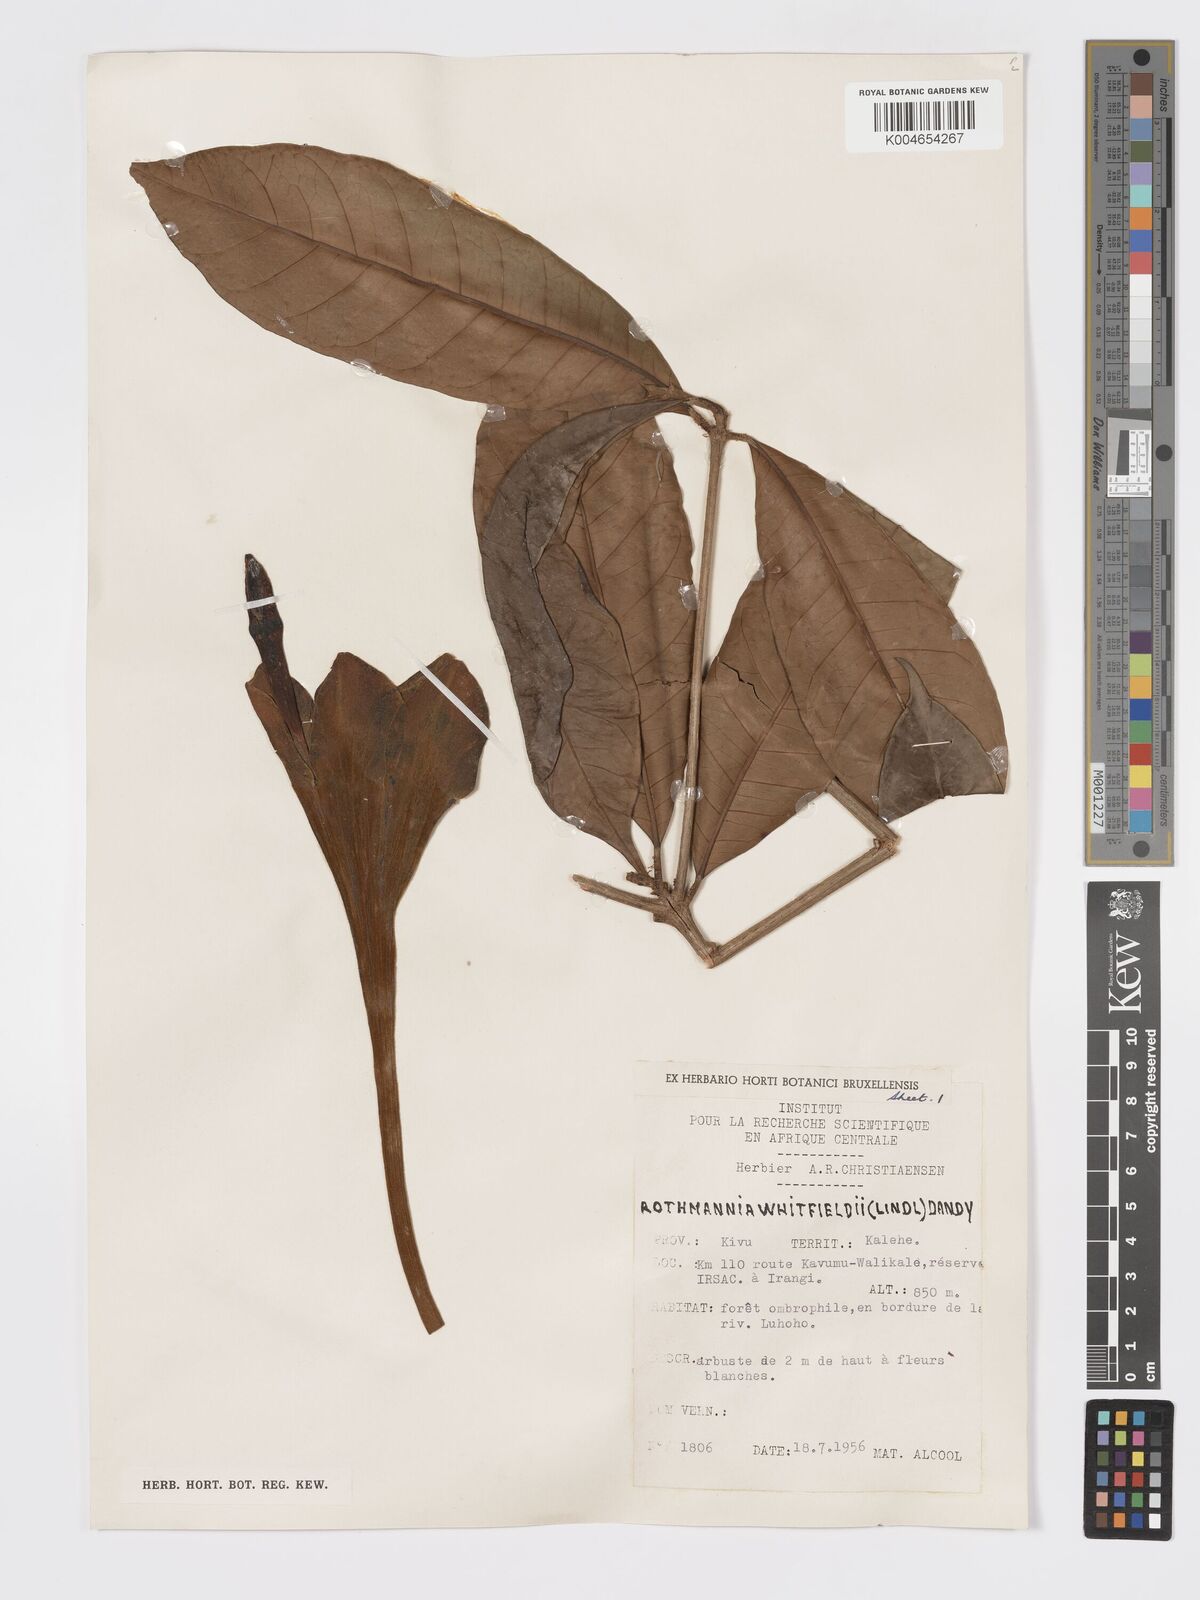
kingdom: Plantae
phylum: Tracheophyta
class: Magnoliopsida
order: Gentianales
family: Rubiaceae
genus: Rothmannia
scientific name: Rothmannia whitfieldii
